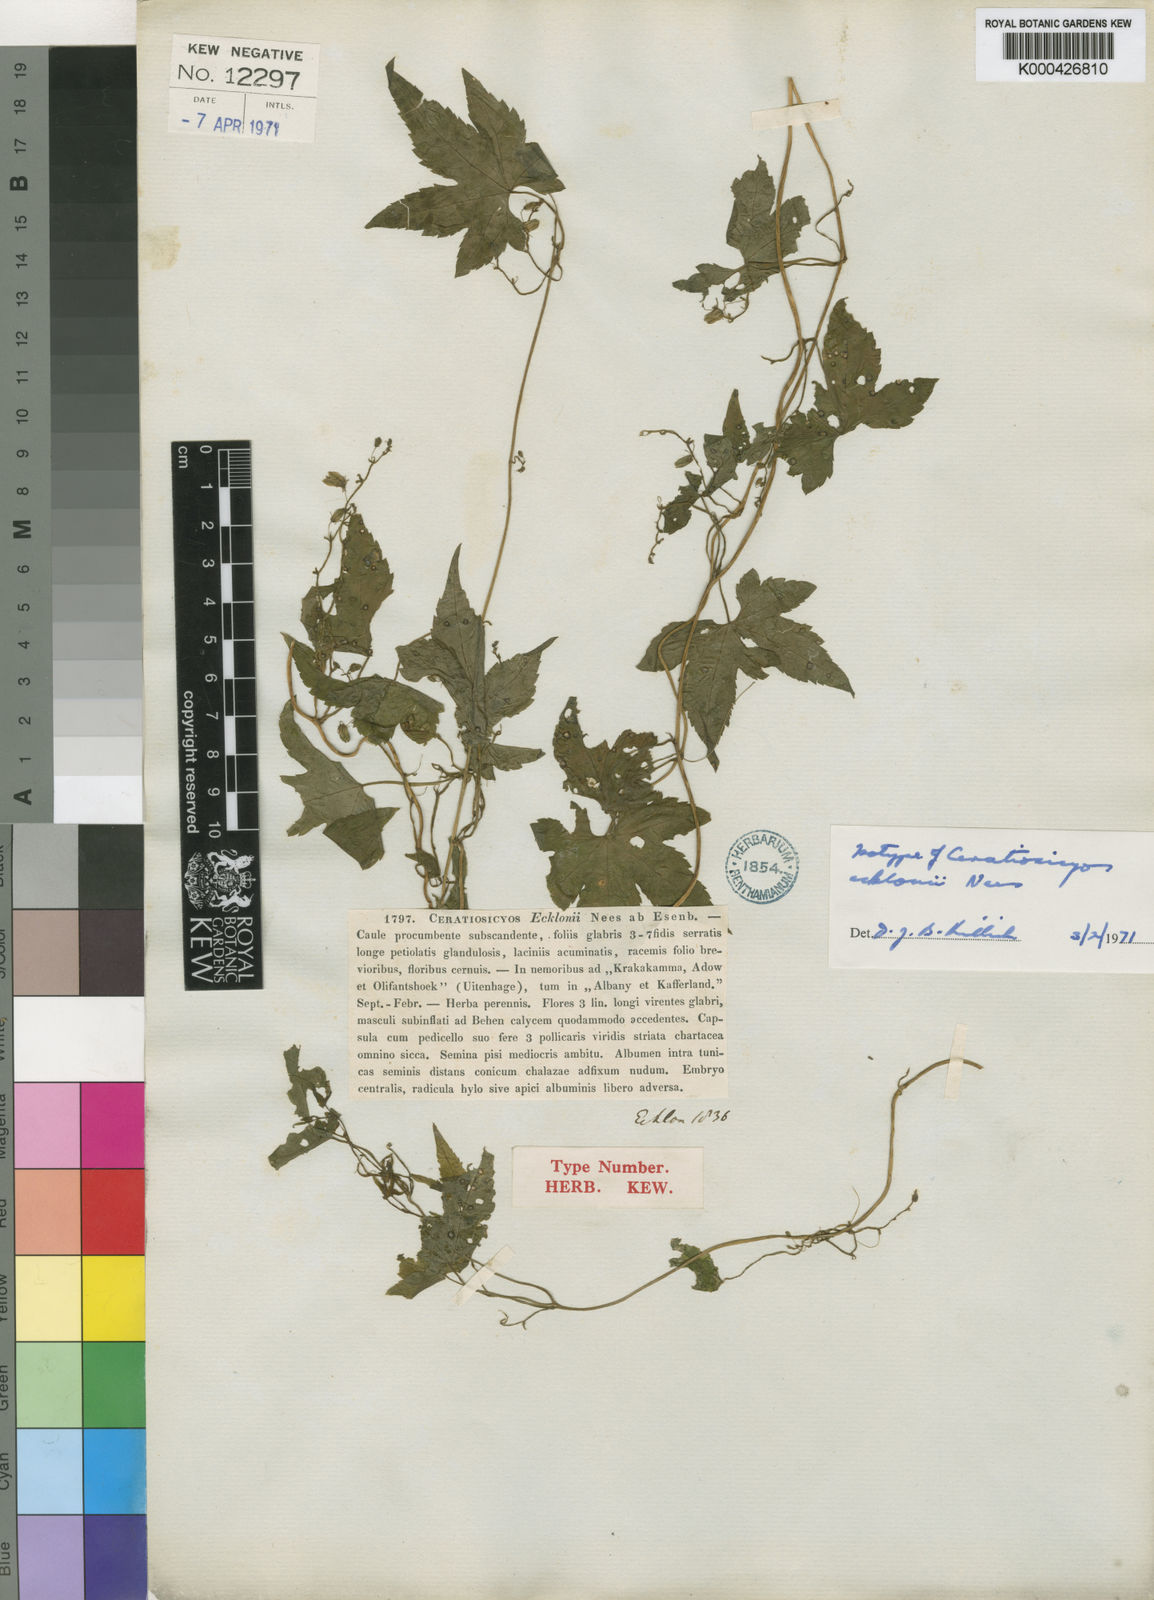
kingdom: Plantae
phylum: Tracheophyta
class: Magnoliopsida
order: Malpighiales
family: Achariaceae
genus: Ceratiosicyos
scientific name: Ceratiosicyos laevis
